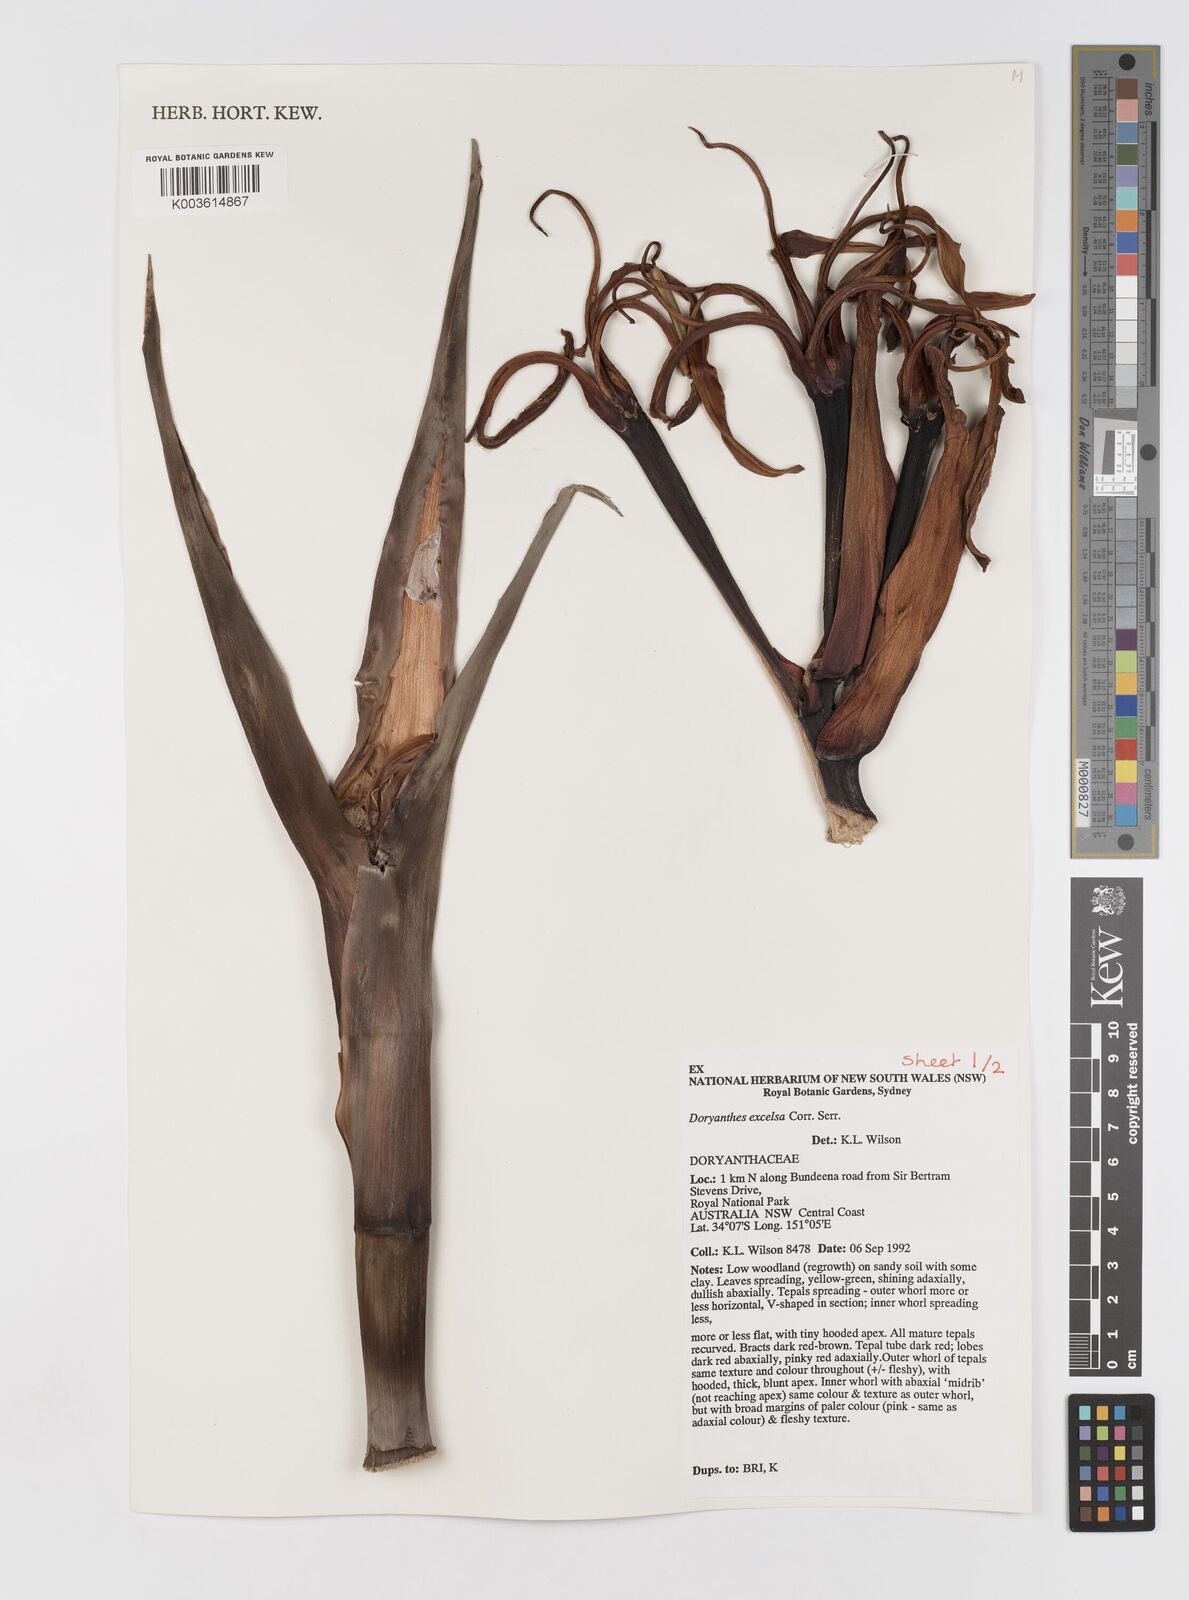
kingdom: Plantae
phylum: Tracheophyta
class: Liliopsida
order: Asparagales
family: Doryanthaceae
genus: Doryanthes
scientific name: Doryanthes excelsa
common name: Giant-lily
